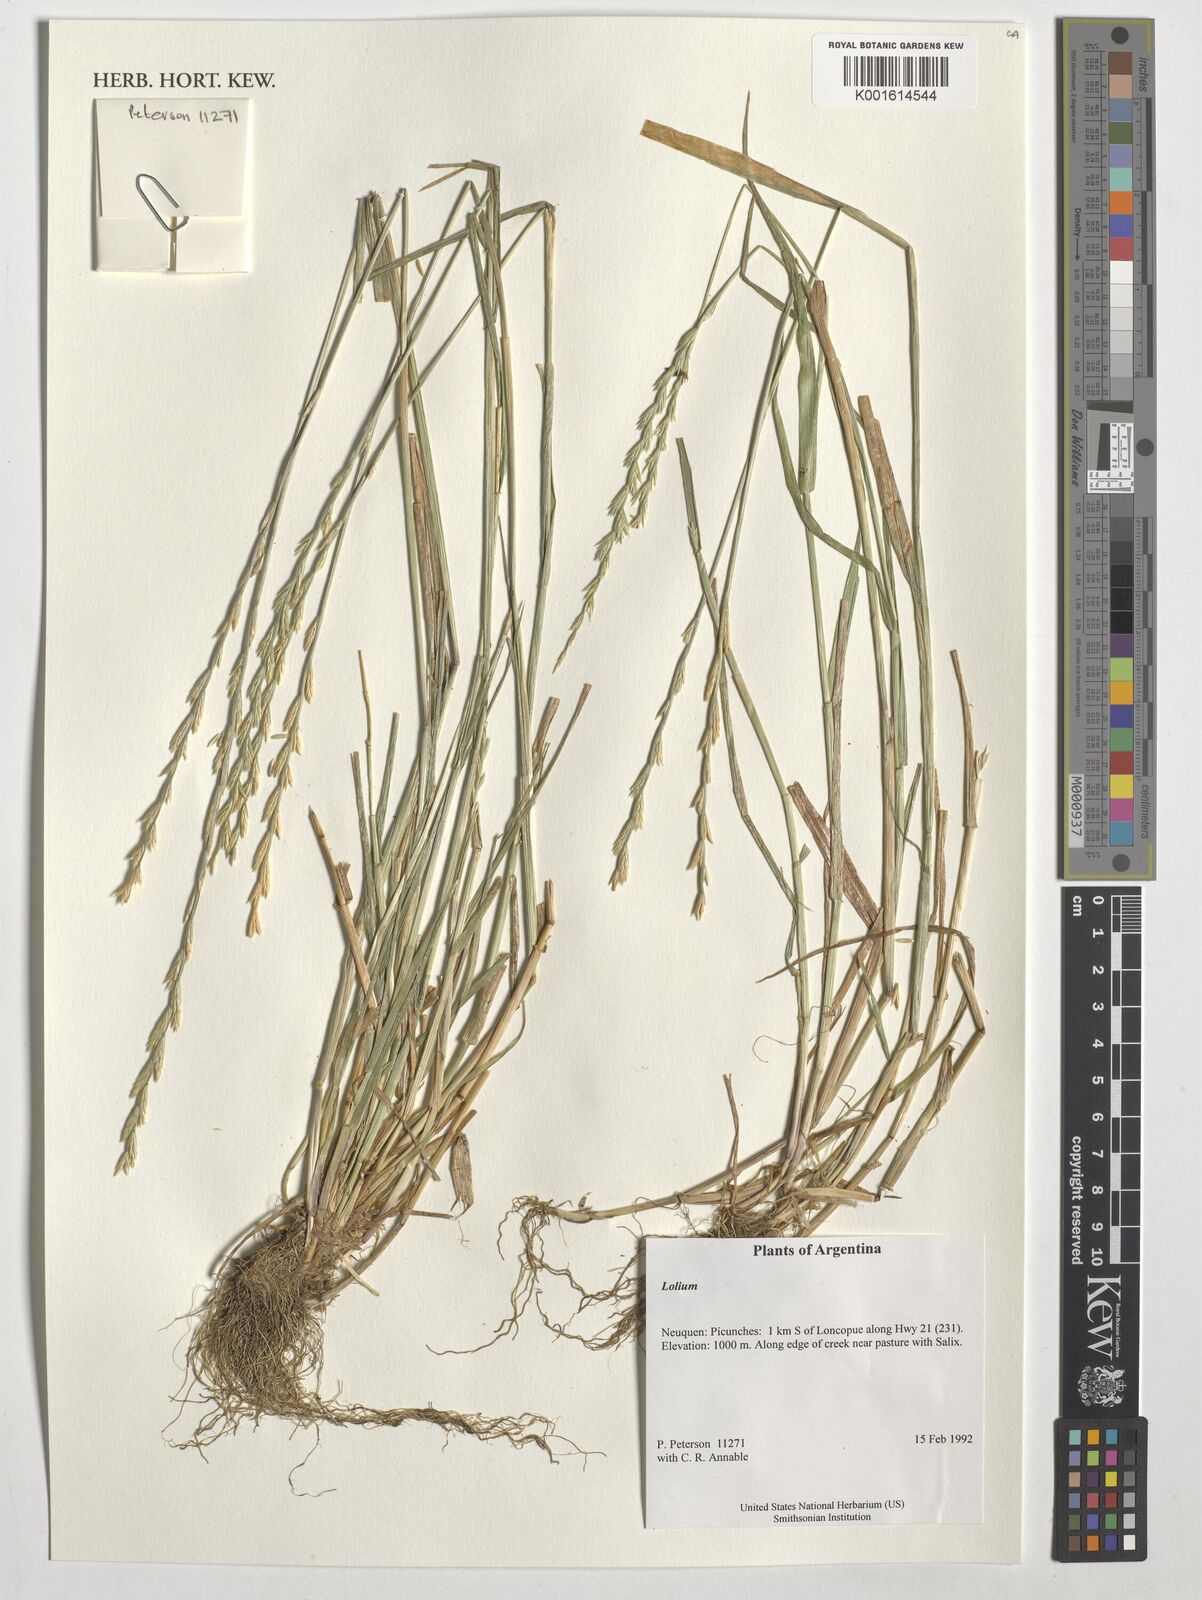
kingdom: Plantae
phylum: Tracheophyta
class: Liliopsida
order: Poales
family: Poaceae
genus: Lolium
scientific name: Lolium
